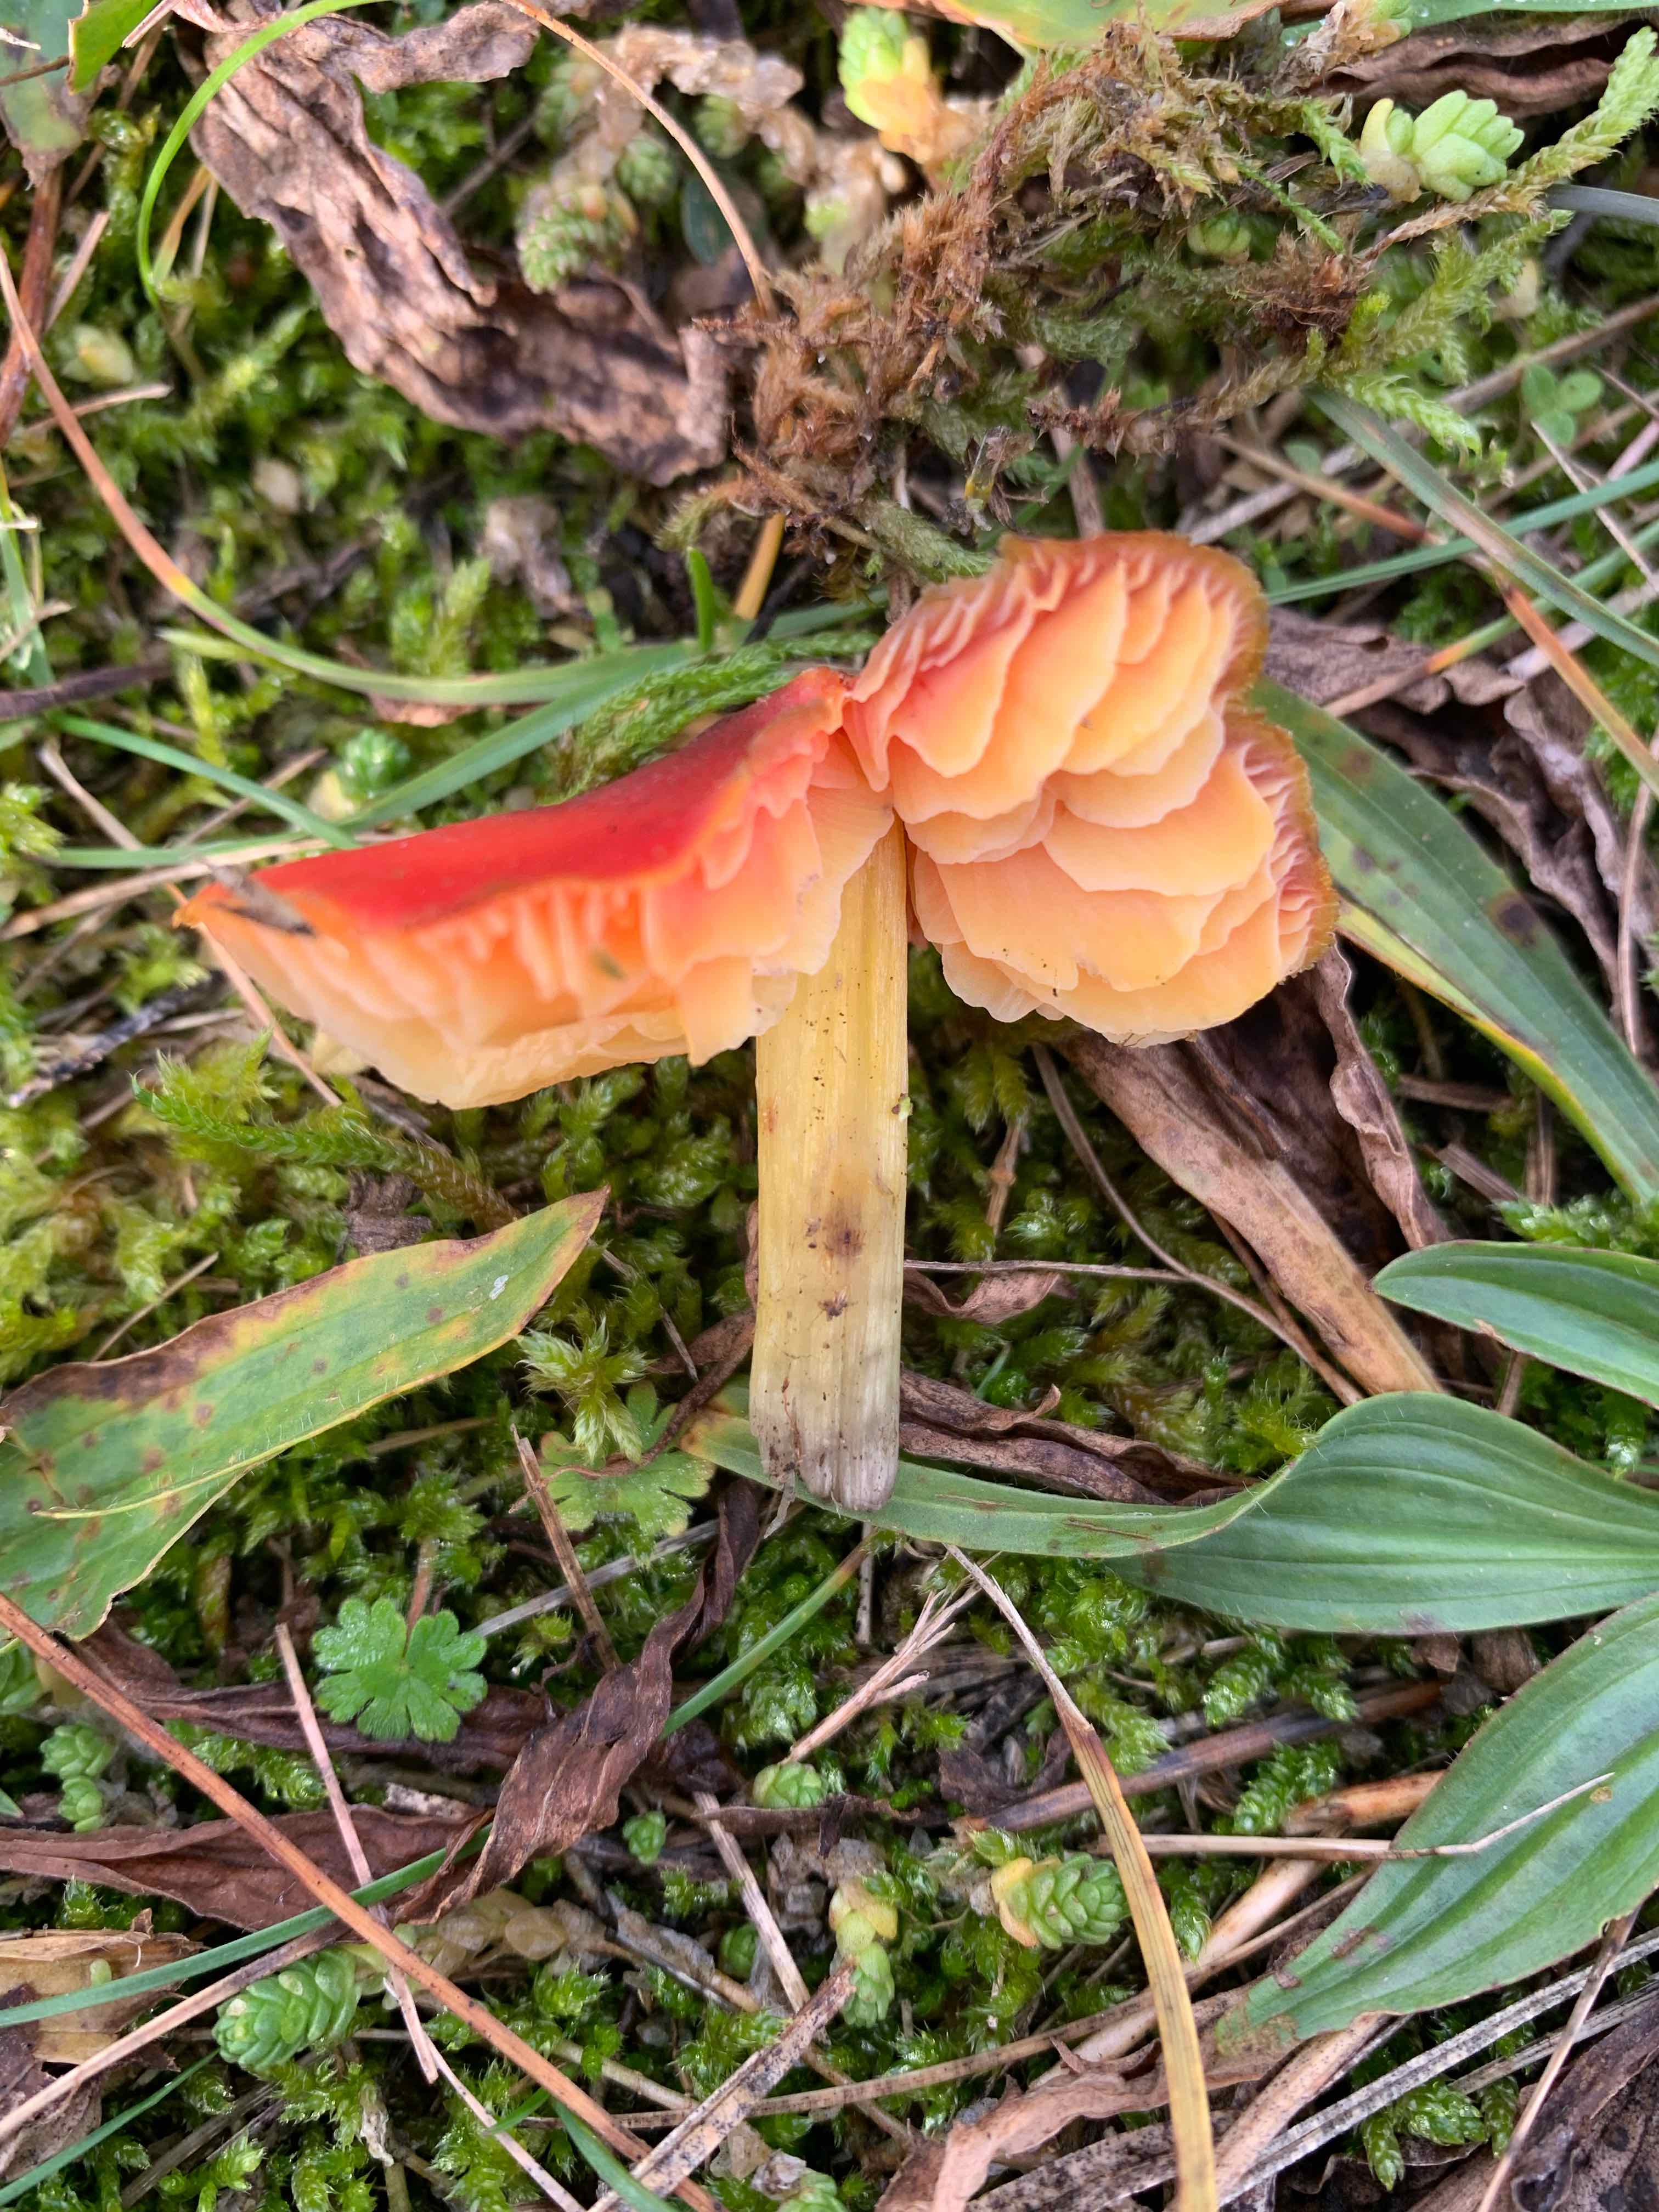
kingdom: Fungi
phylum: Basidiomycota
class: Agaricomycetes
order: Agaricales
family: Hygrophoraceae
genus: Hygrocybe
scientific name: Hygrocybe conica
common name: kegle-vokshat
